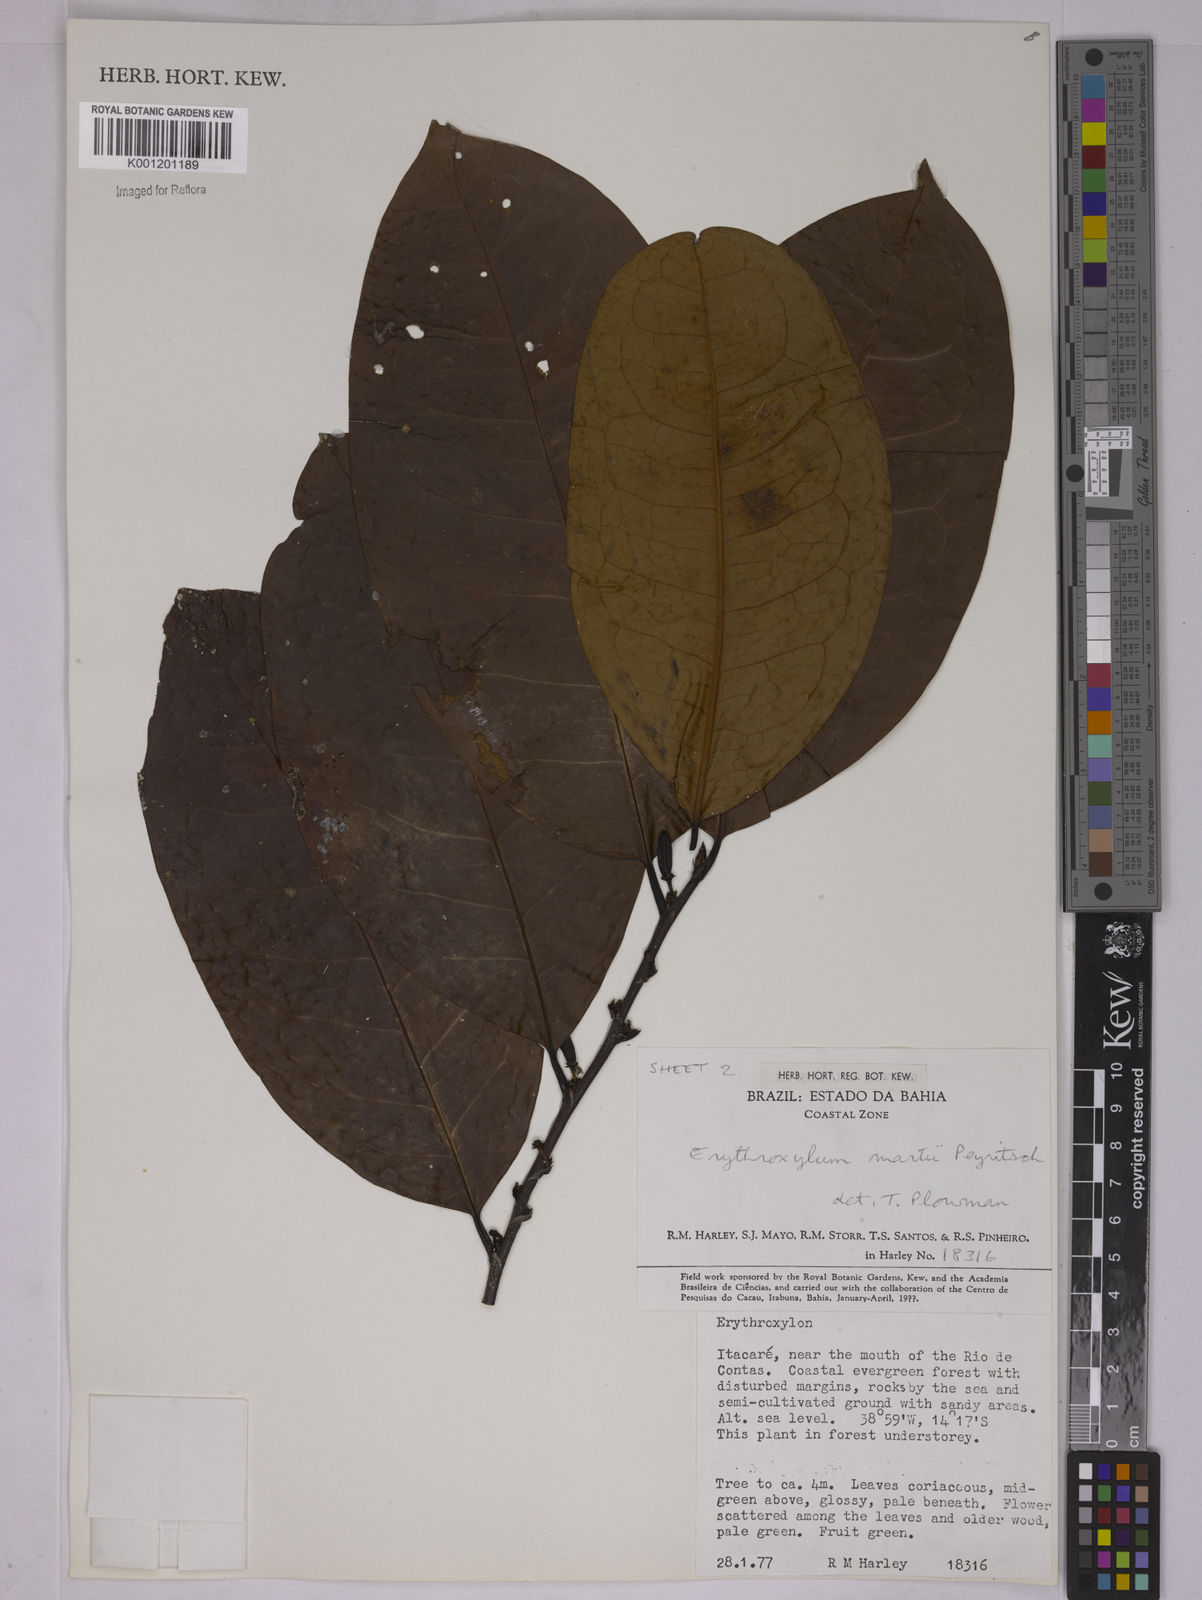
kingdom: Plantae
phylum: Tracheophyta
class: Magnoliopsida
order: Malpighiales
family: Erythroxylaceae
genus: Erythroxylum
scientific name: Erythroxylum martii
